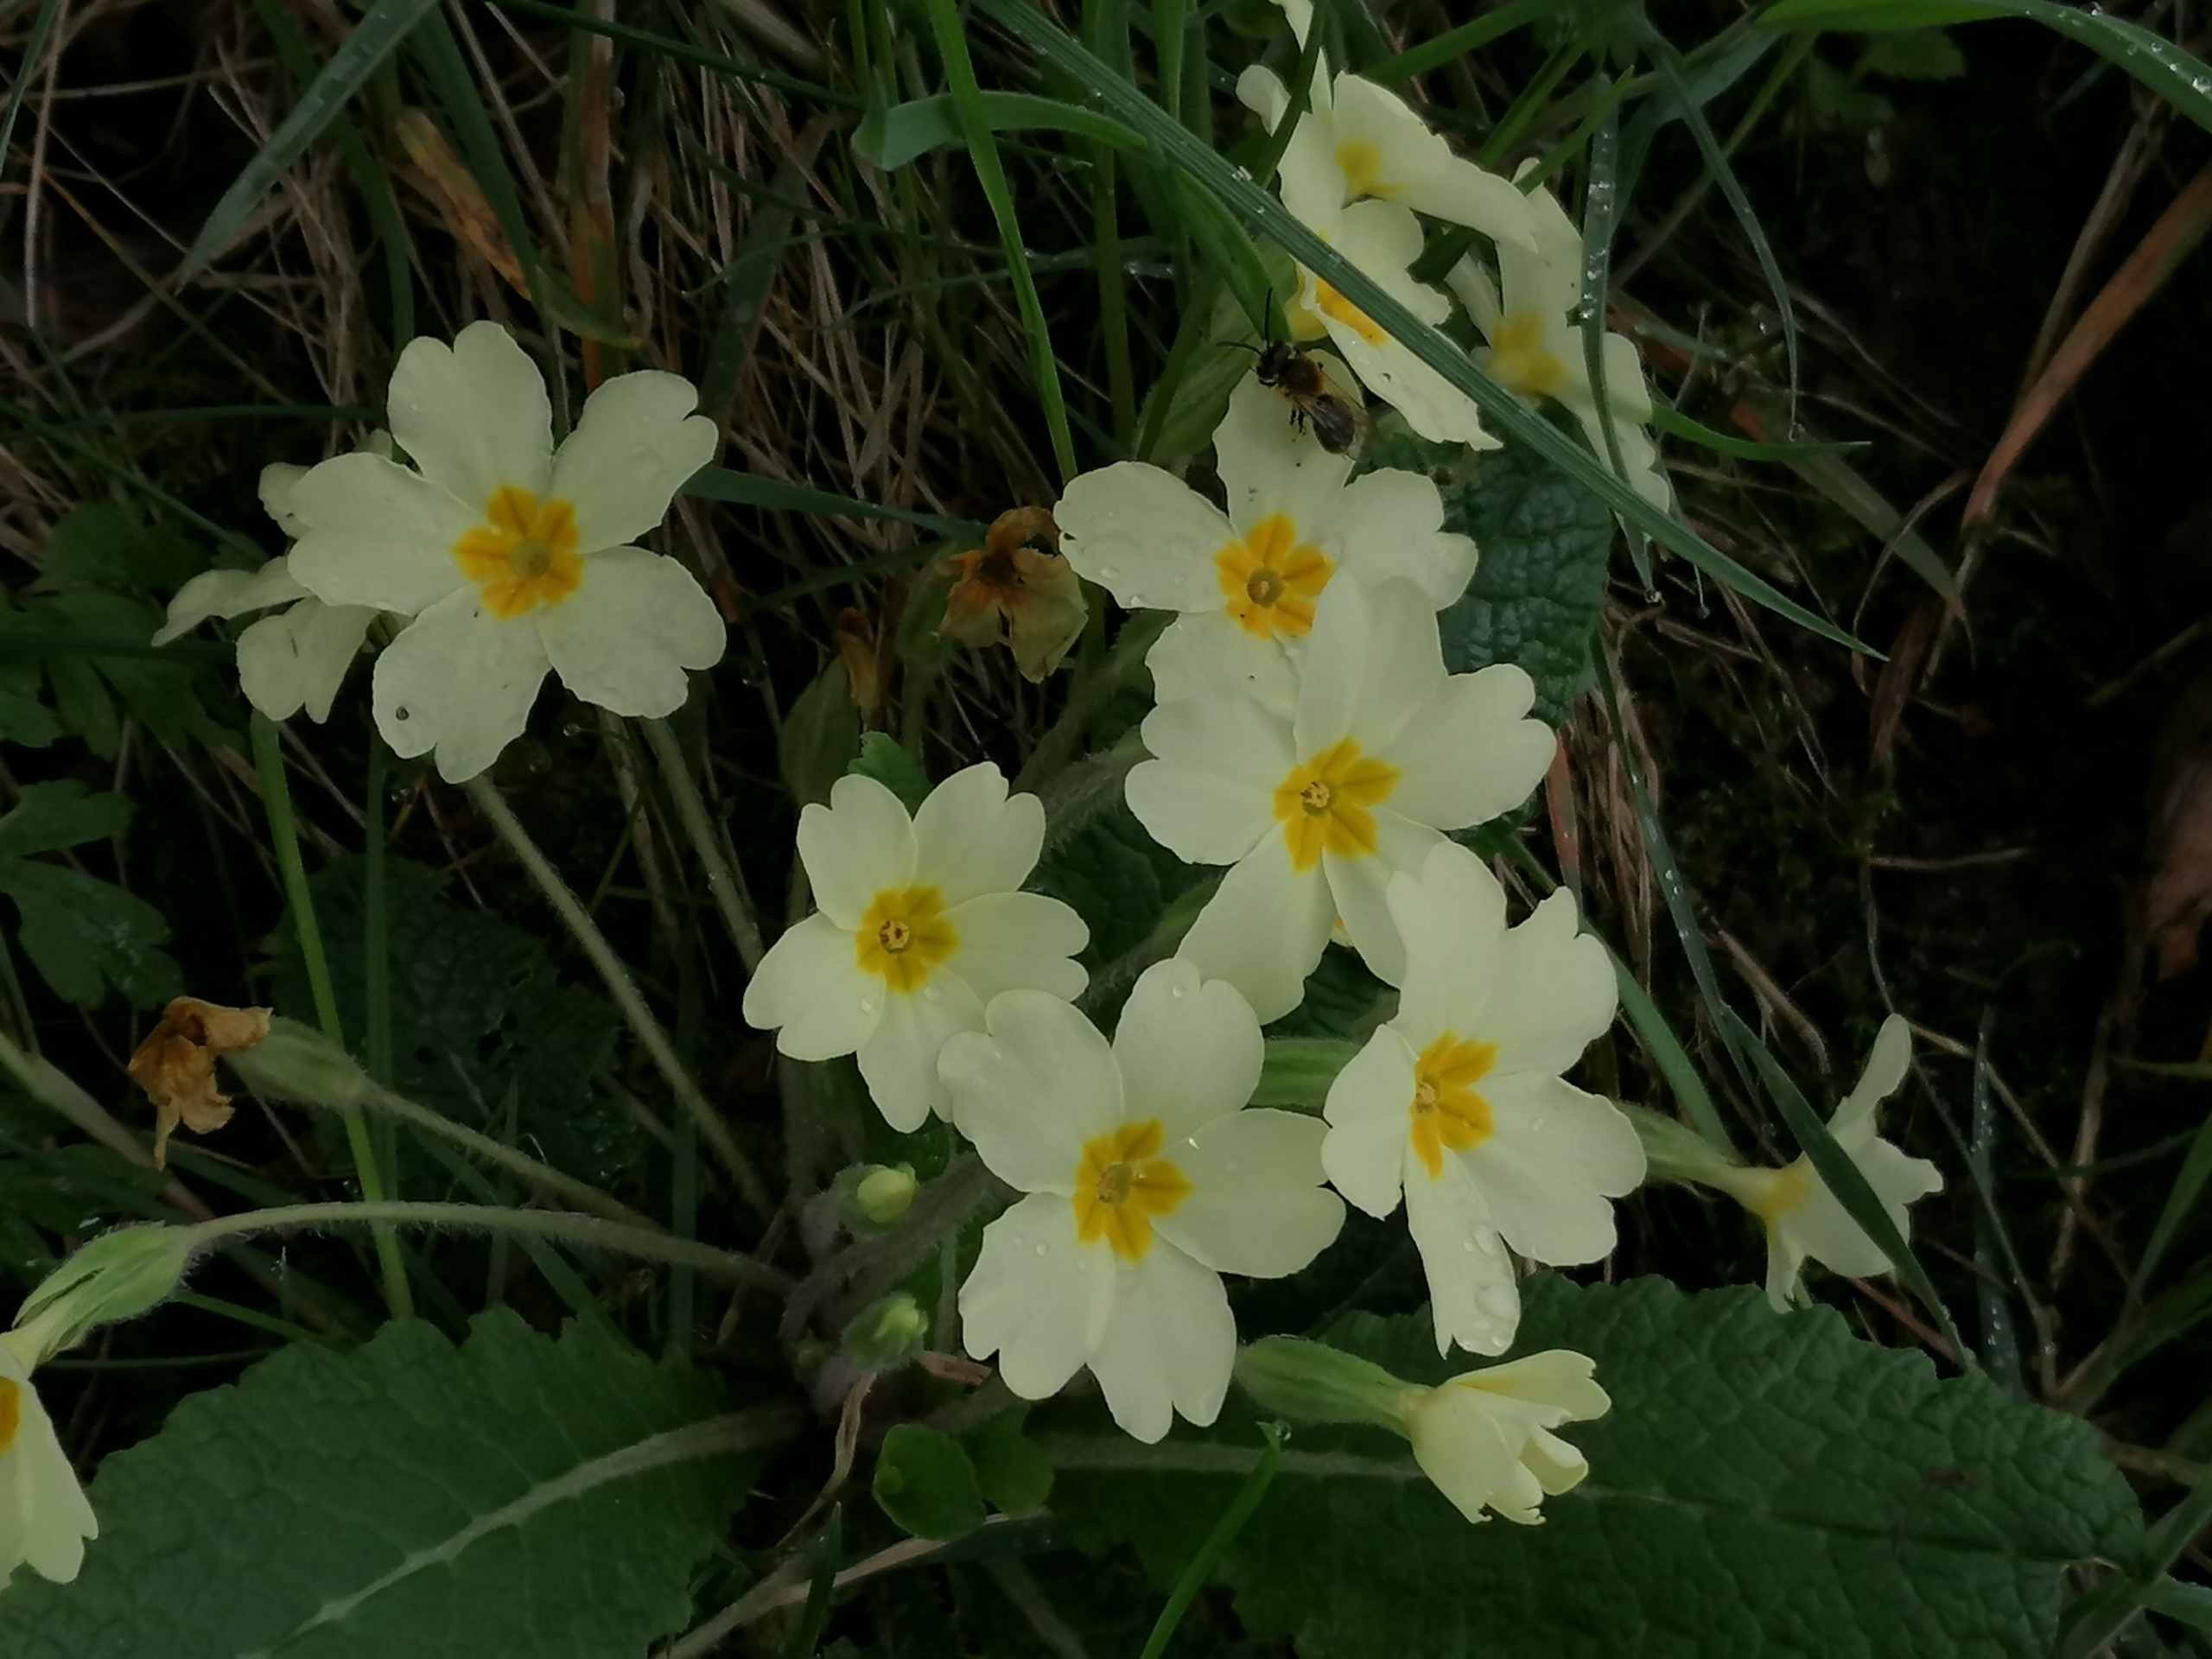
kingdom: Plantae
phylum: Tracheophyta
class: Magnoliopsida
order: Ericales
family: Primulaceae
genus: Primula
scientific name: Primula vulgaris
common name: Storblomstret kodriver
